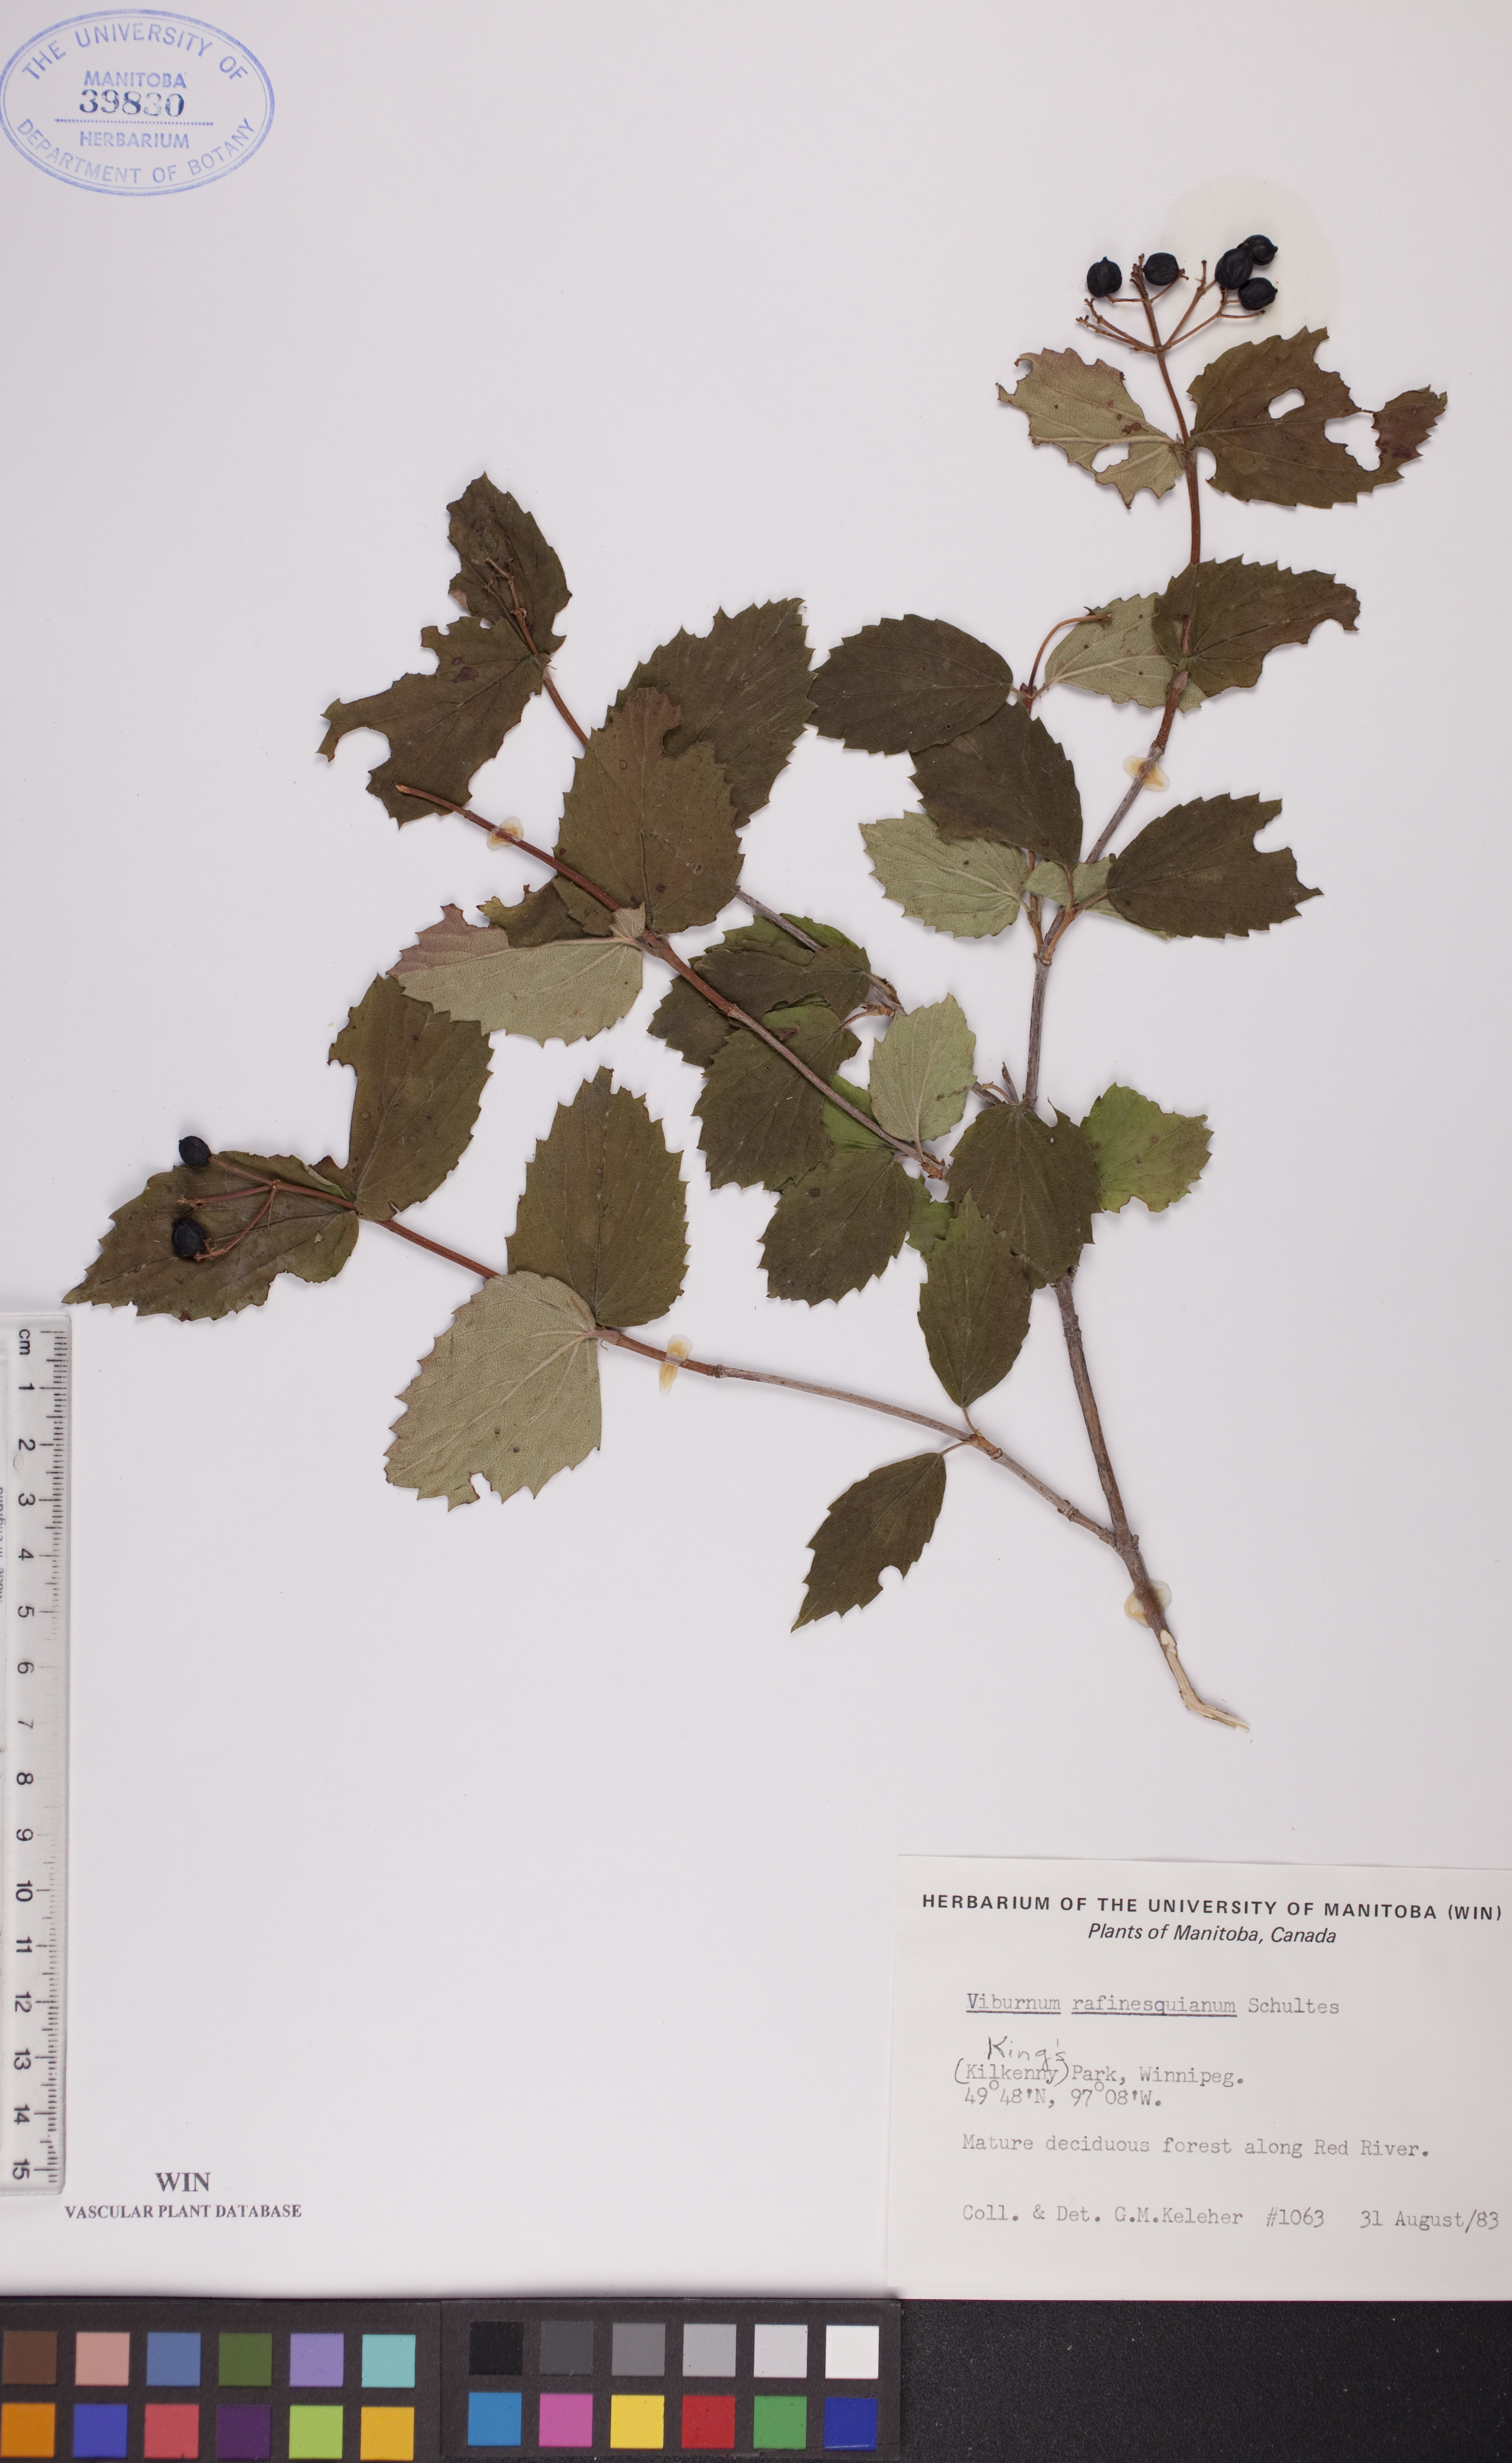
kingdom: Plantae
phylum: Tracheophyta
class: Magnoliopsida
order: Dipsacales
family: Viburnaceae
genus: Viburnum
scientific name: Viburnum rafinesquianum
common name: Downy arrow-wood
